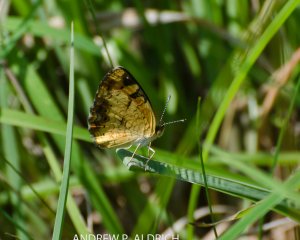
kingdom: Animalia
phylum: Arthropoda
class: Insecta
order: Lepidoptera
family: Nymphalidae
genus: Phyciodes
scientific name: Phyciodes
